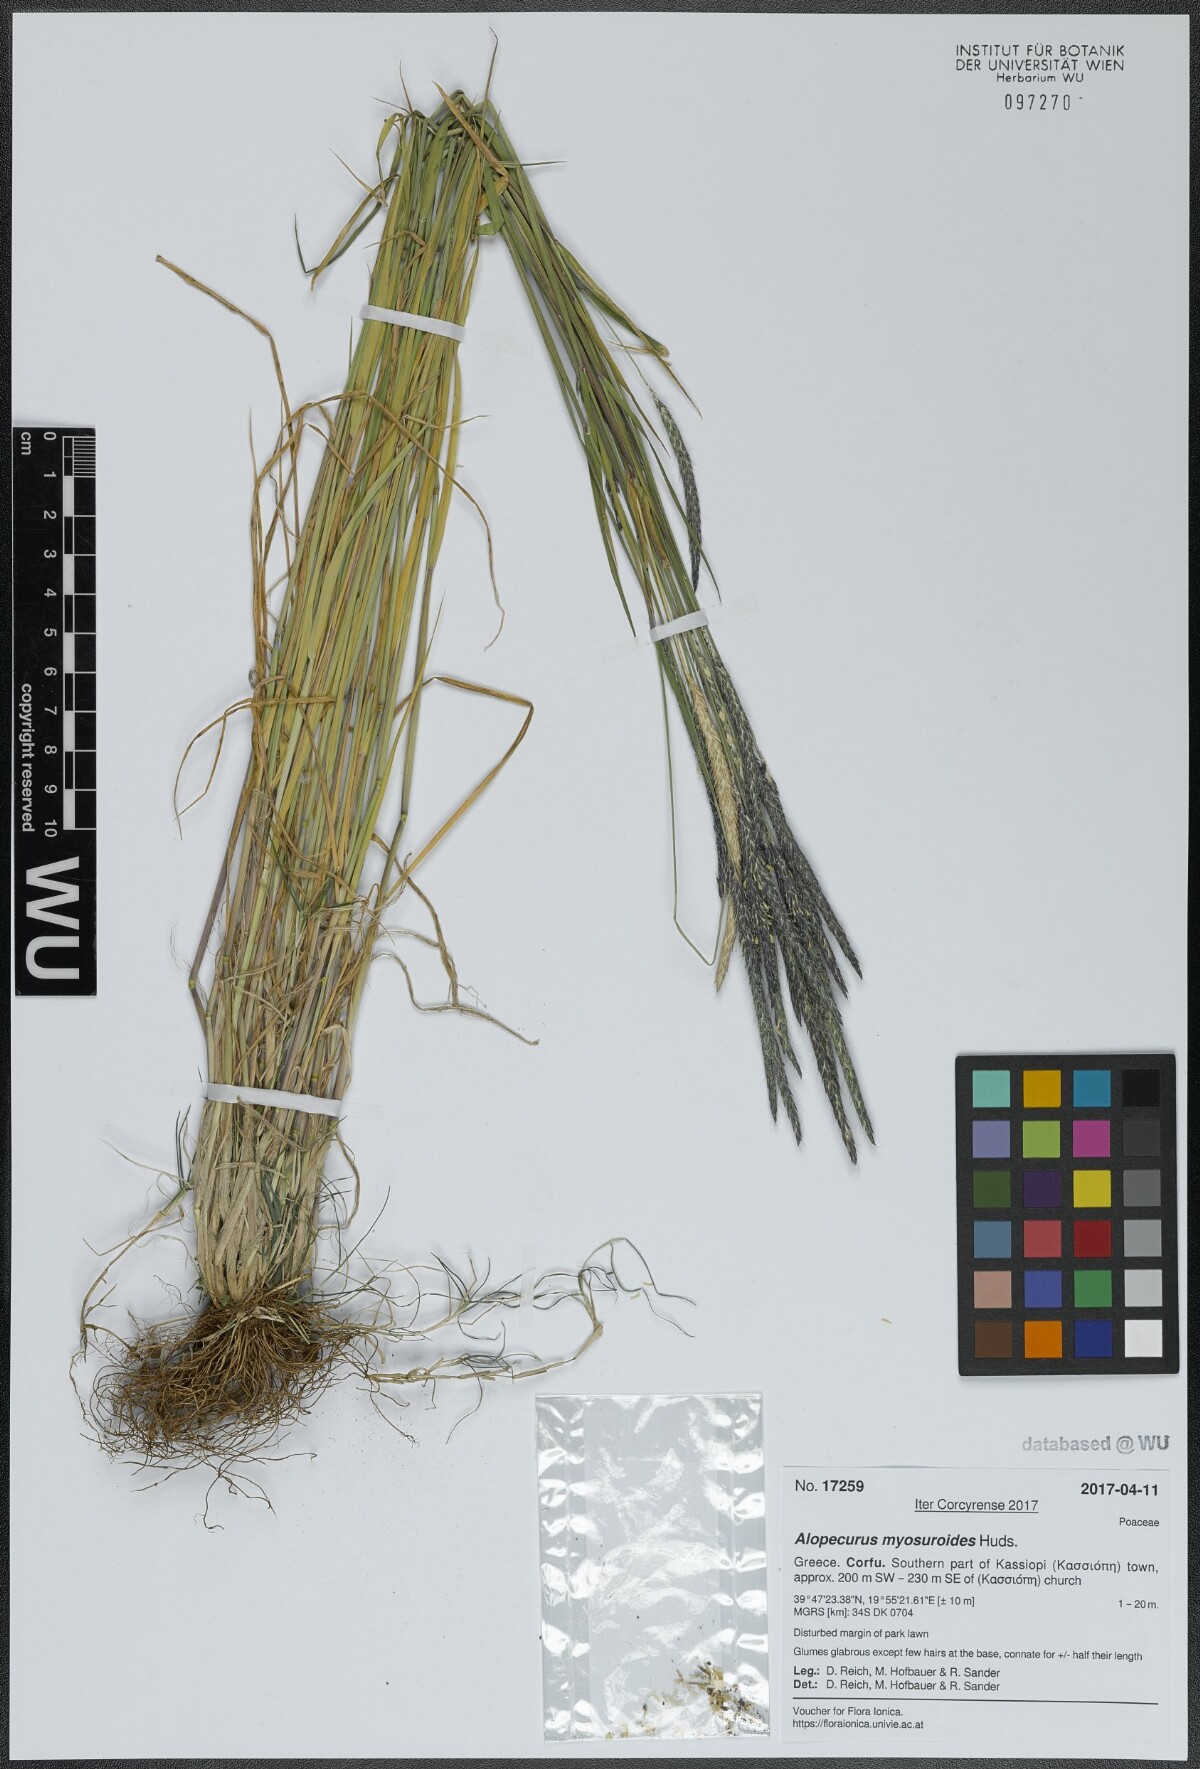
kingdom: Plantae
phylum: Tracheophyta
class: Liliopsida
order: Poales
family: Poaceae
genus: Alopecurus
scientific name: Alopecurus myosuroides
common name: Black-grass
